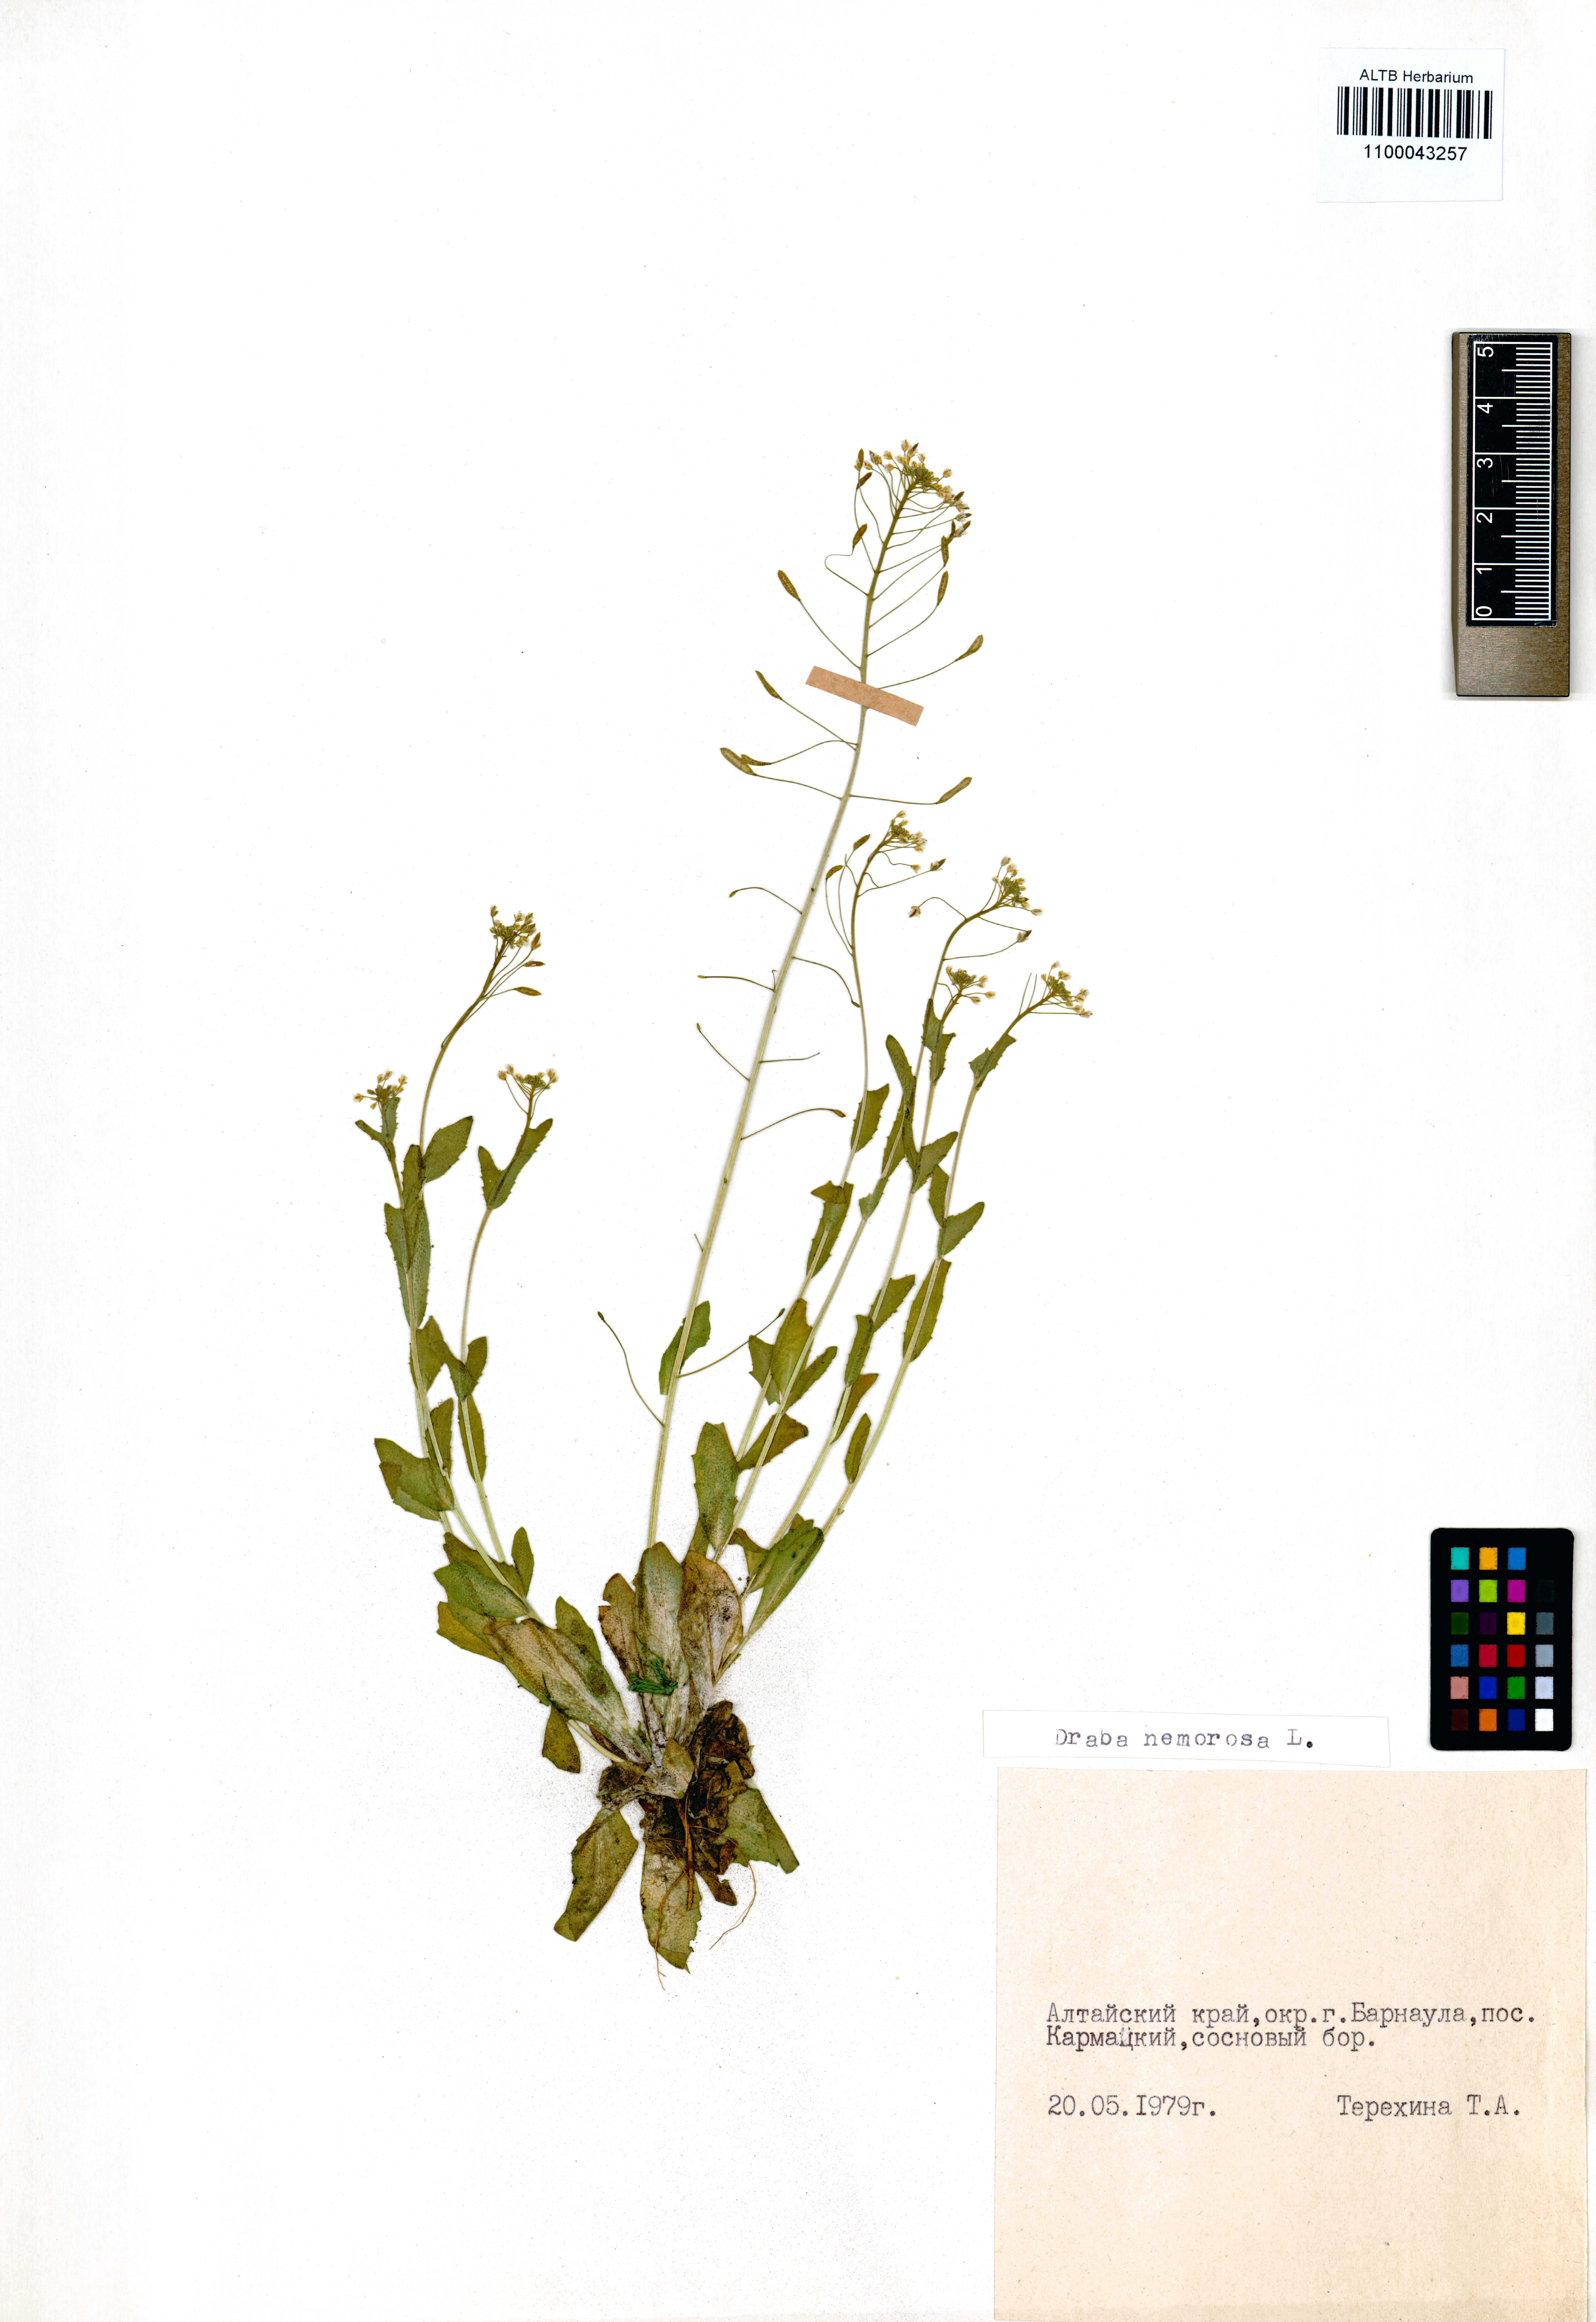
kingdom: Plantae
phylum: Tracheophyta
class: Magnoliopsida
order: Brassicales
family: Brassicaceae
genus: Draba
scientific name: Draba nemorosa
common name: Wood whitlow-grass
